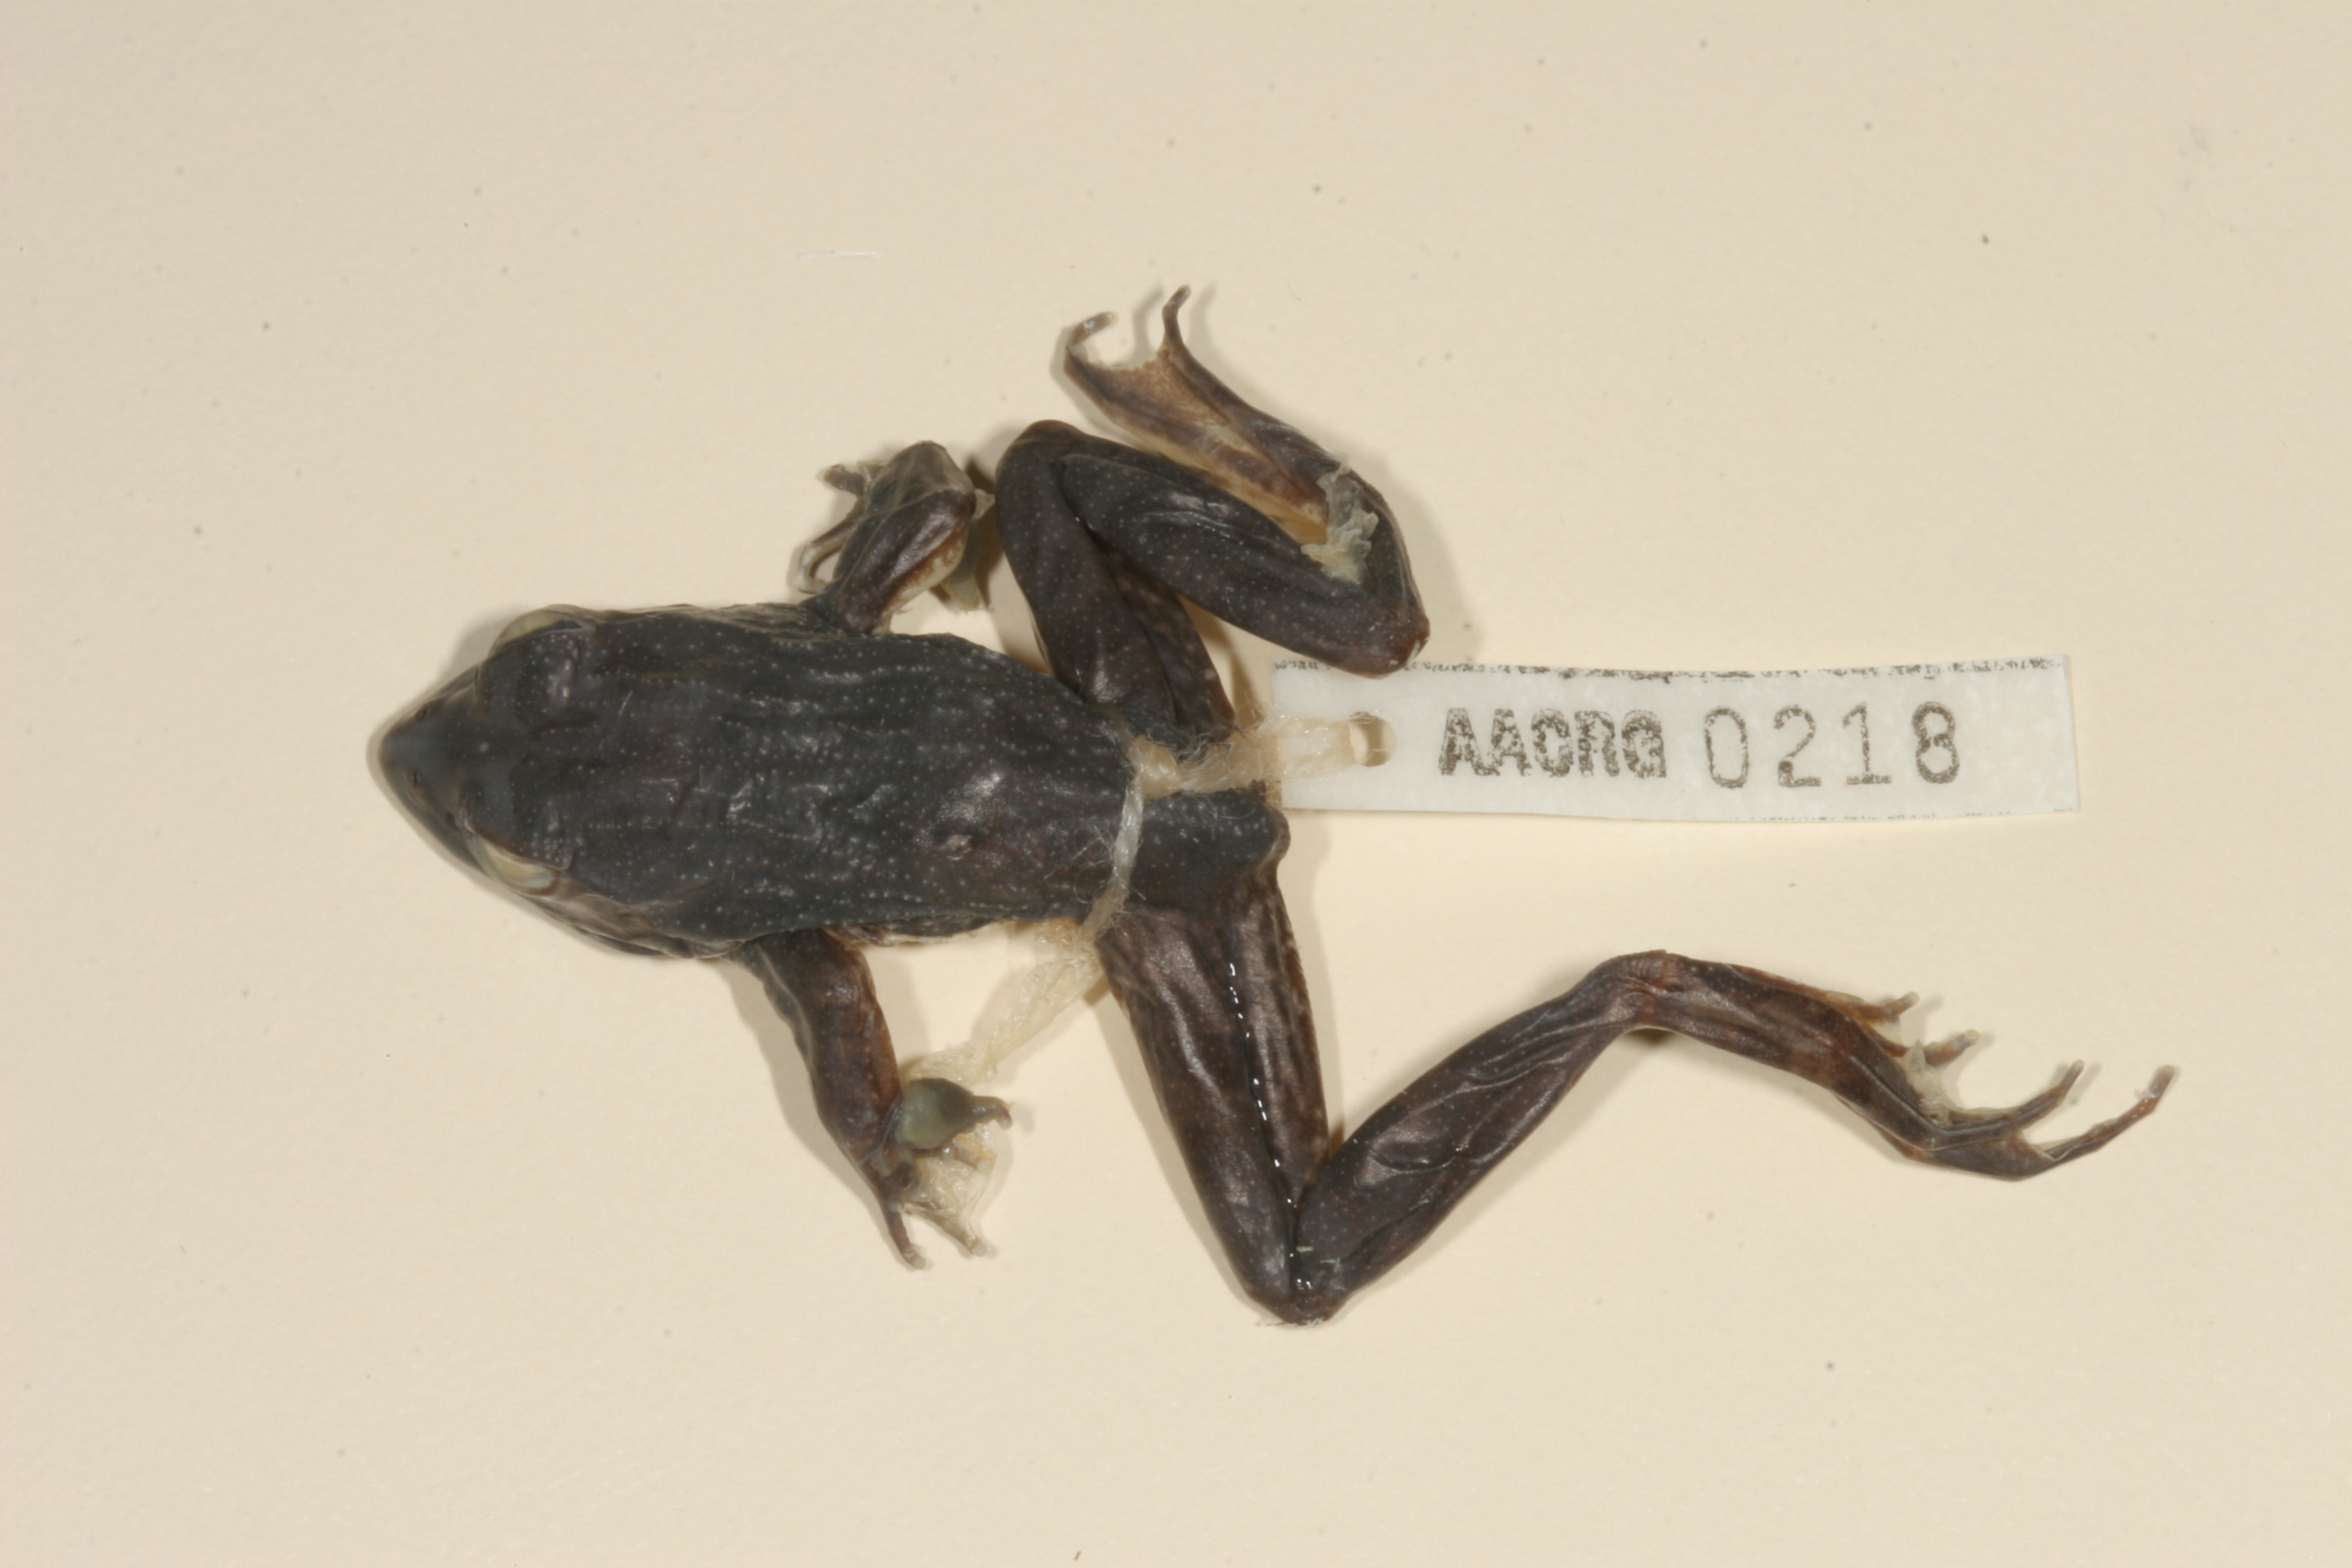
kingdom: Animalia
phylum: Chordata
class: Amphibia
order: Anura
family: Pyxicephalidae
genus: Amietia
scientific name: Amietia angolensis
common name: Dusky-throated frog
